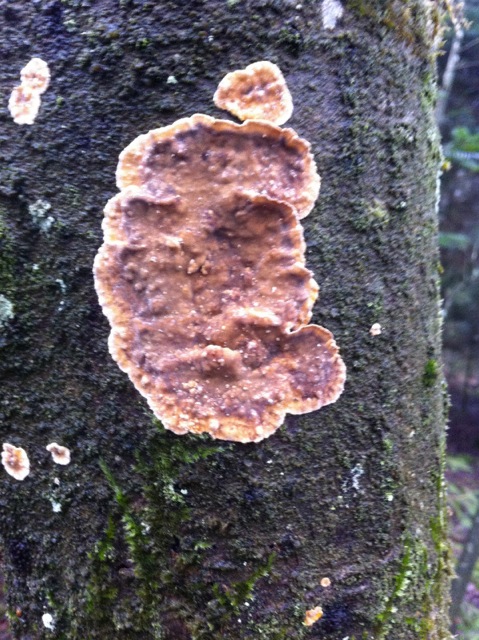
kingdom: Fungi
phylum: Basidiomycota
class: Agaricomycetes
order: Russulales
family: Stereaceae
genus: Stereum
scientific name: Stereum rugosum
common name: rynket lædersvamp
